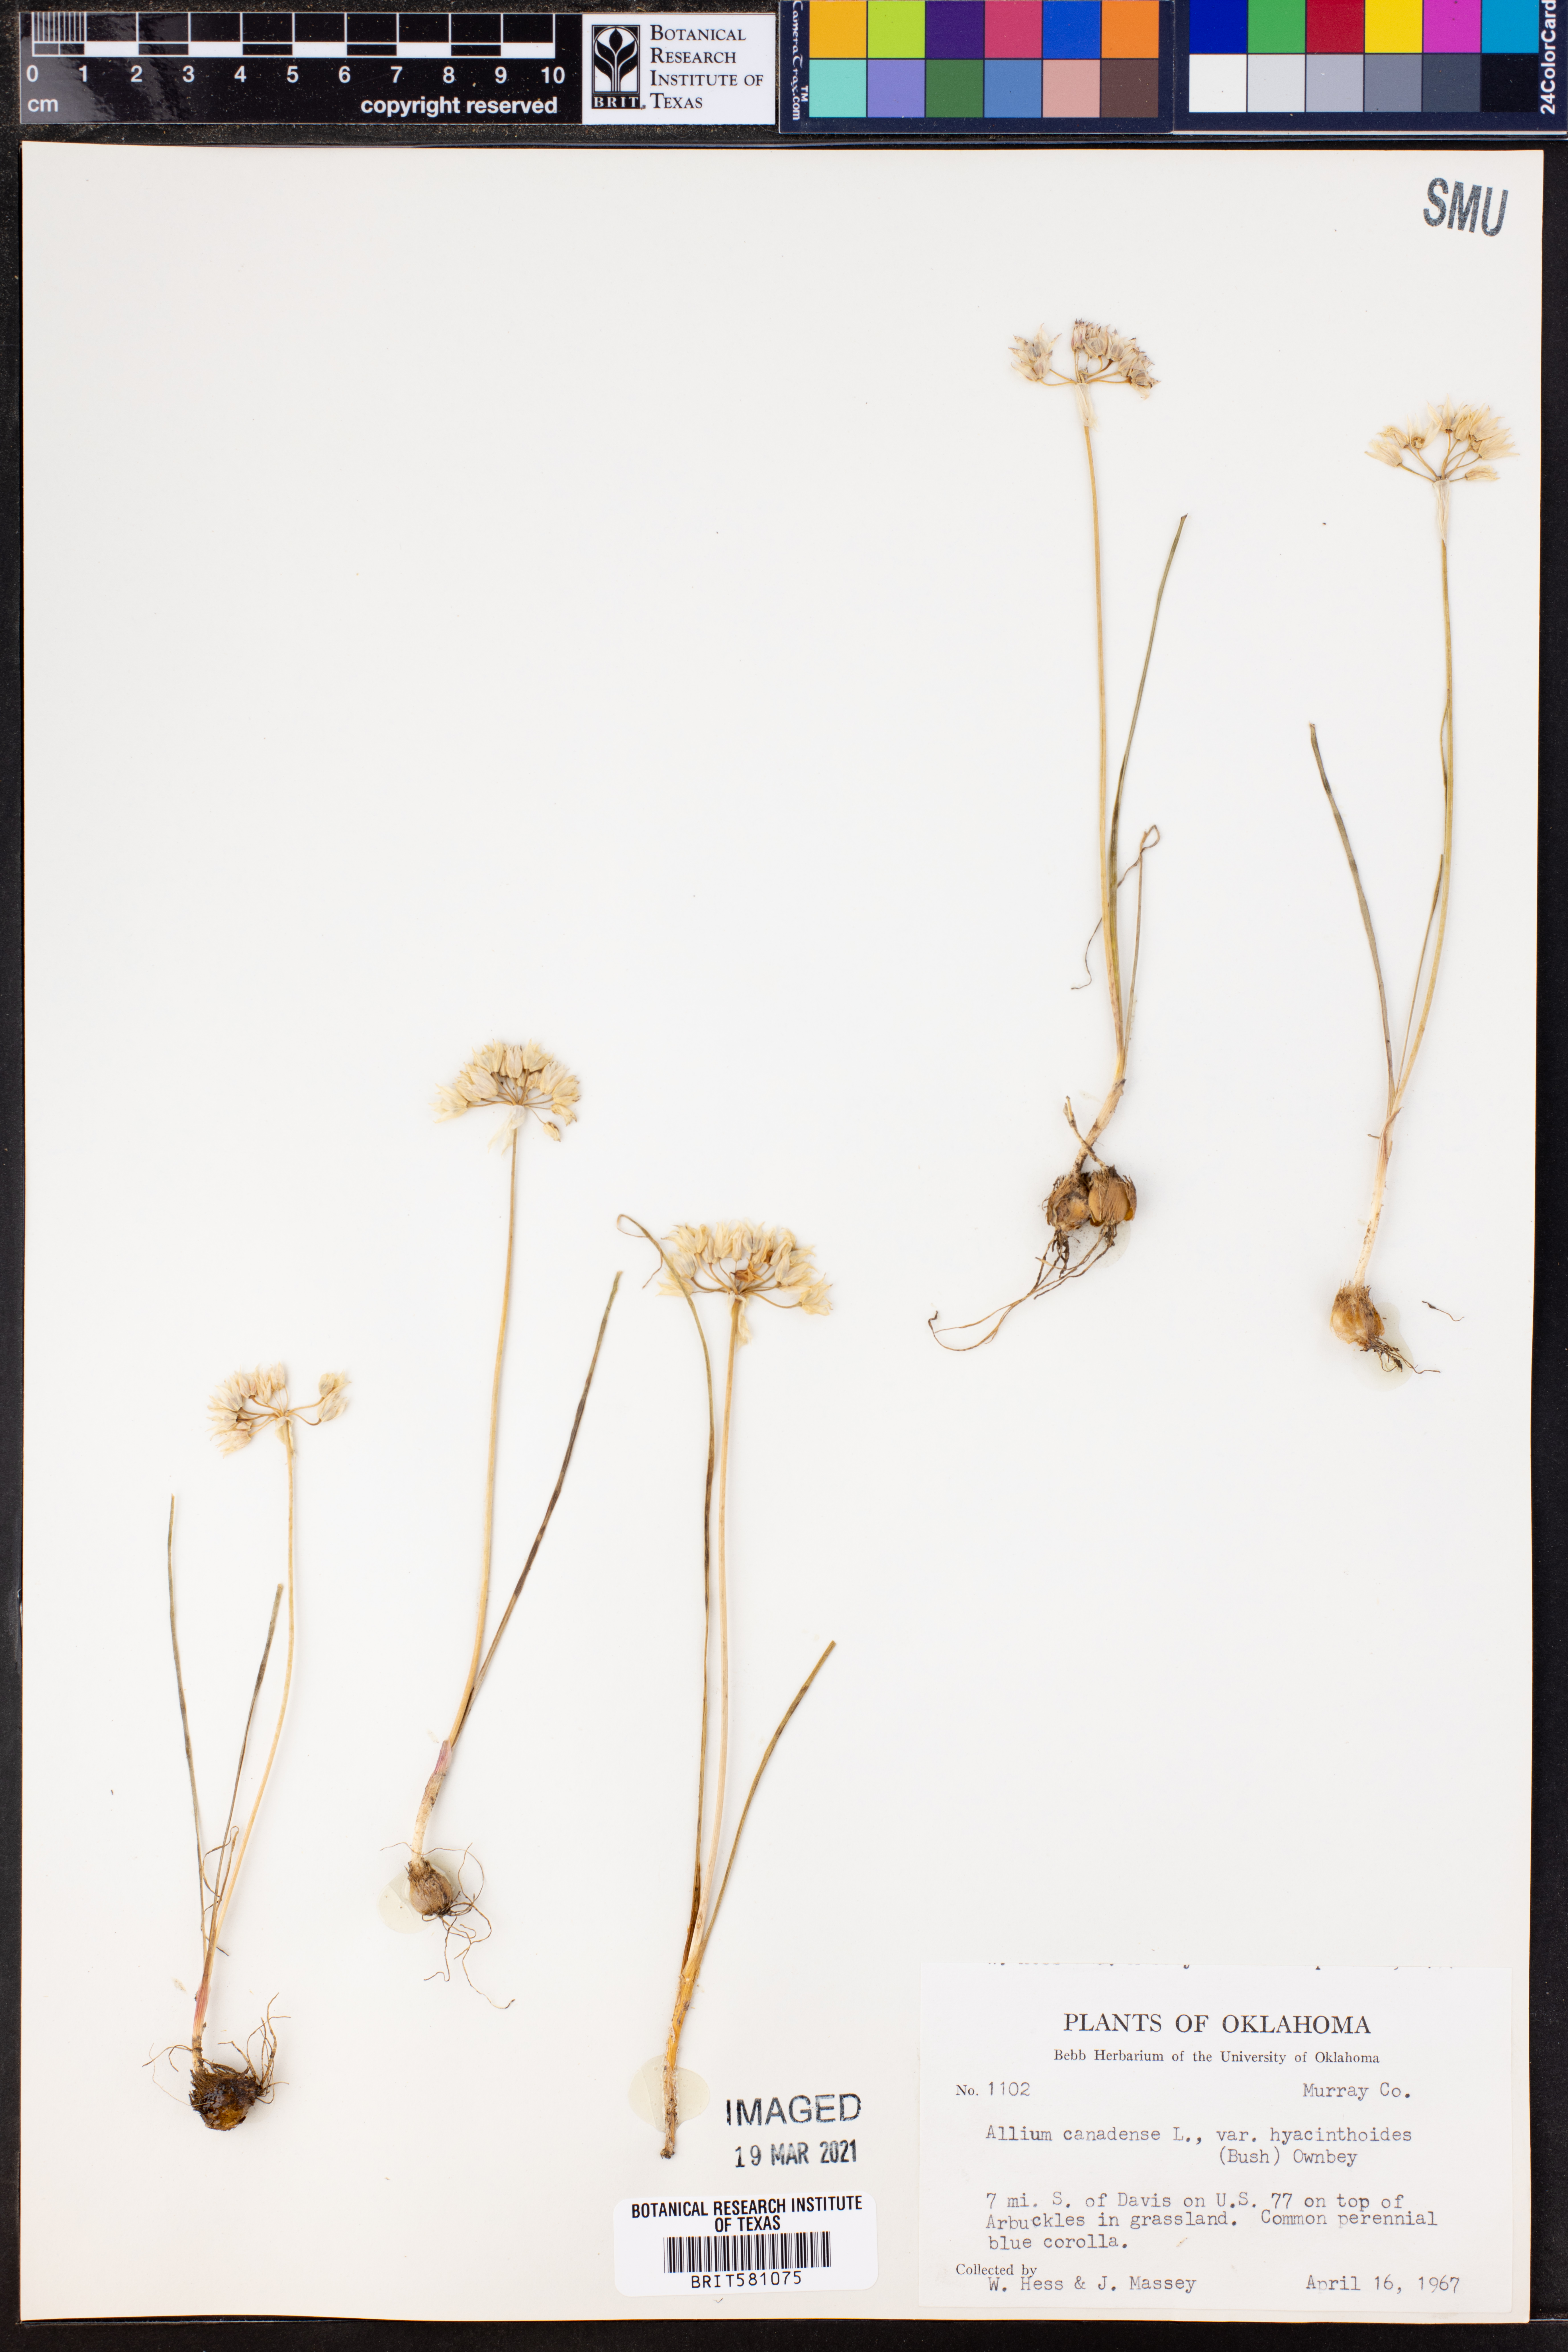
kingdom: Plantae
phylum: Tracheophyta
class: Liliopsida
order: Asparagales
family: Amaryllidaceae
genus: Allium
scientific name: Allium canadense
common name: Meadow garlic
